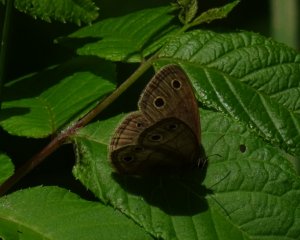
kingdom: Animalia
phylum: Arthropoda
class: Insecta
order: Lepidoptera
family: Nymphalidae
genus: Euptychia
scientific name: Euptychia cymela
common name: Little Wood Satyr
